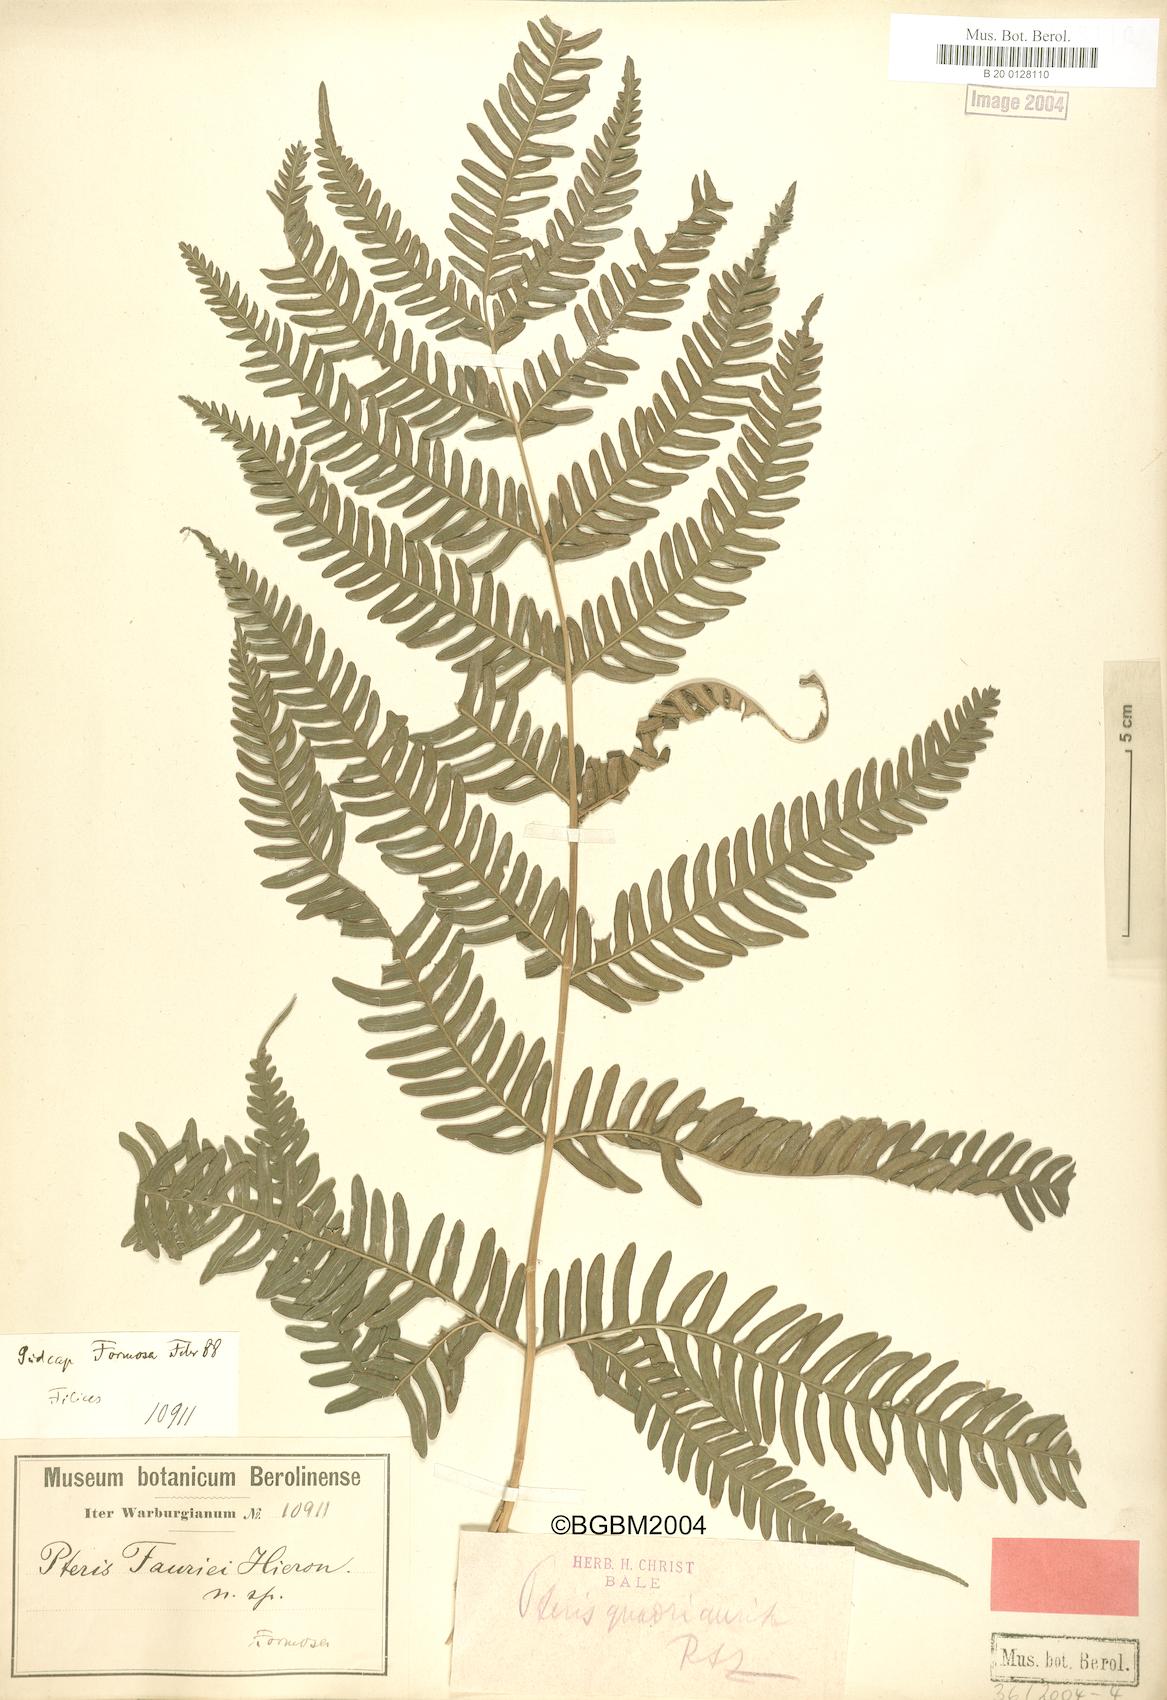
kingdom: Plantae
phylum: Tracheophyta
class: Polypodiopsida
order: Polypodiales
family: Pteridaceae
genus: Pteris
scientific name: Pteris fauriei
